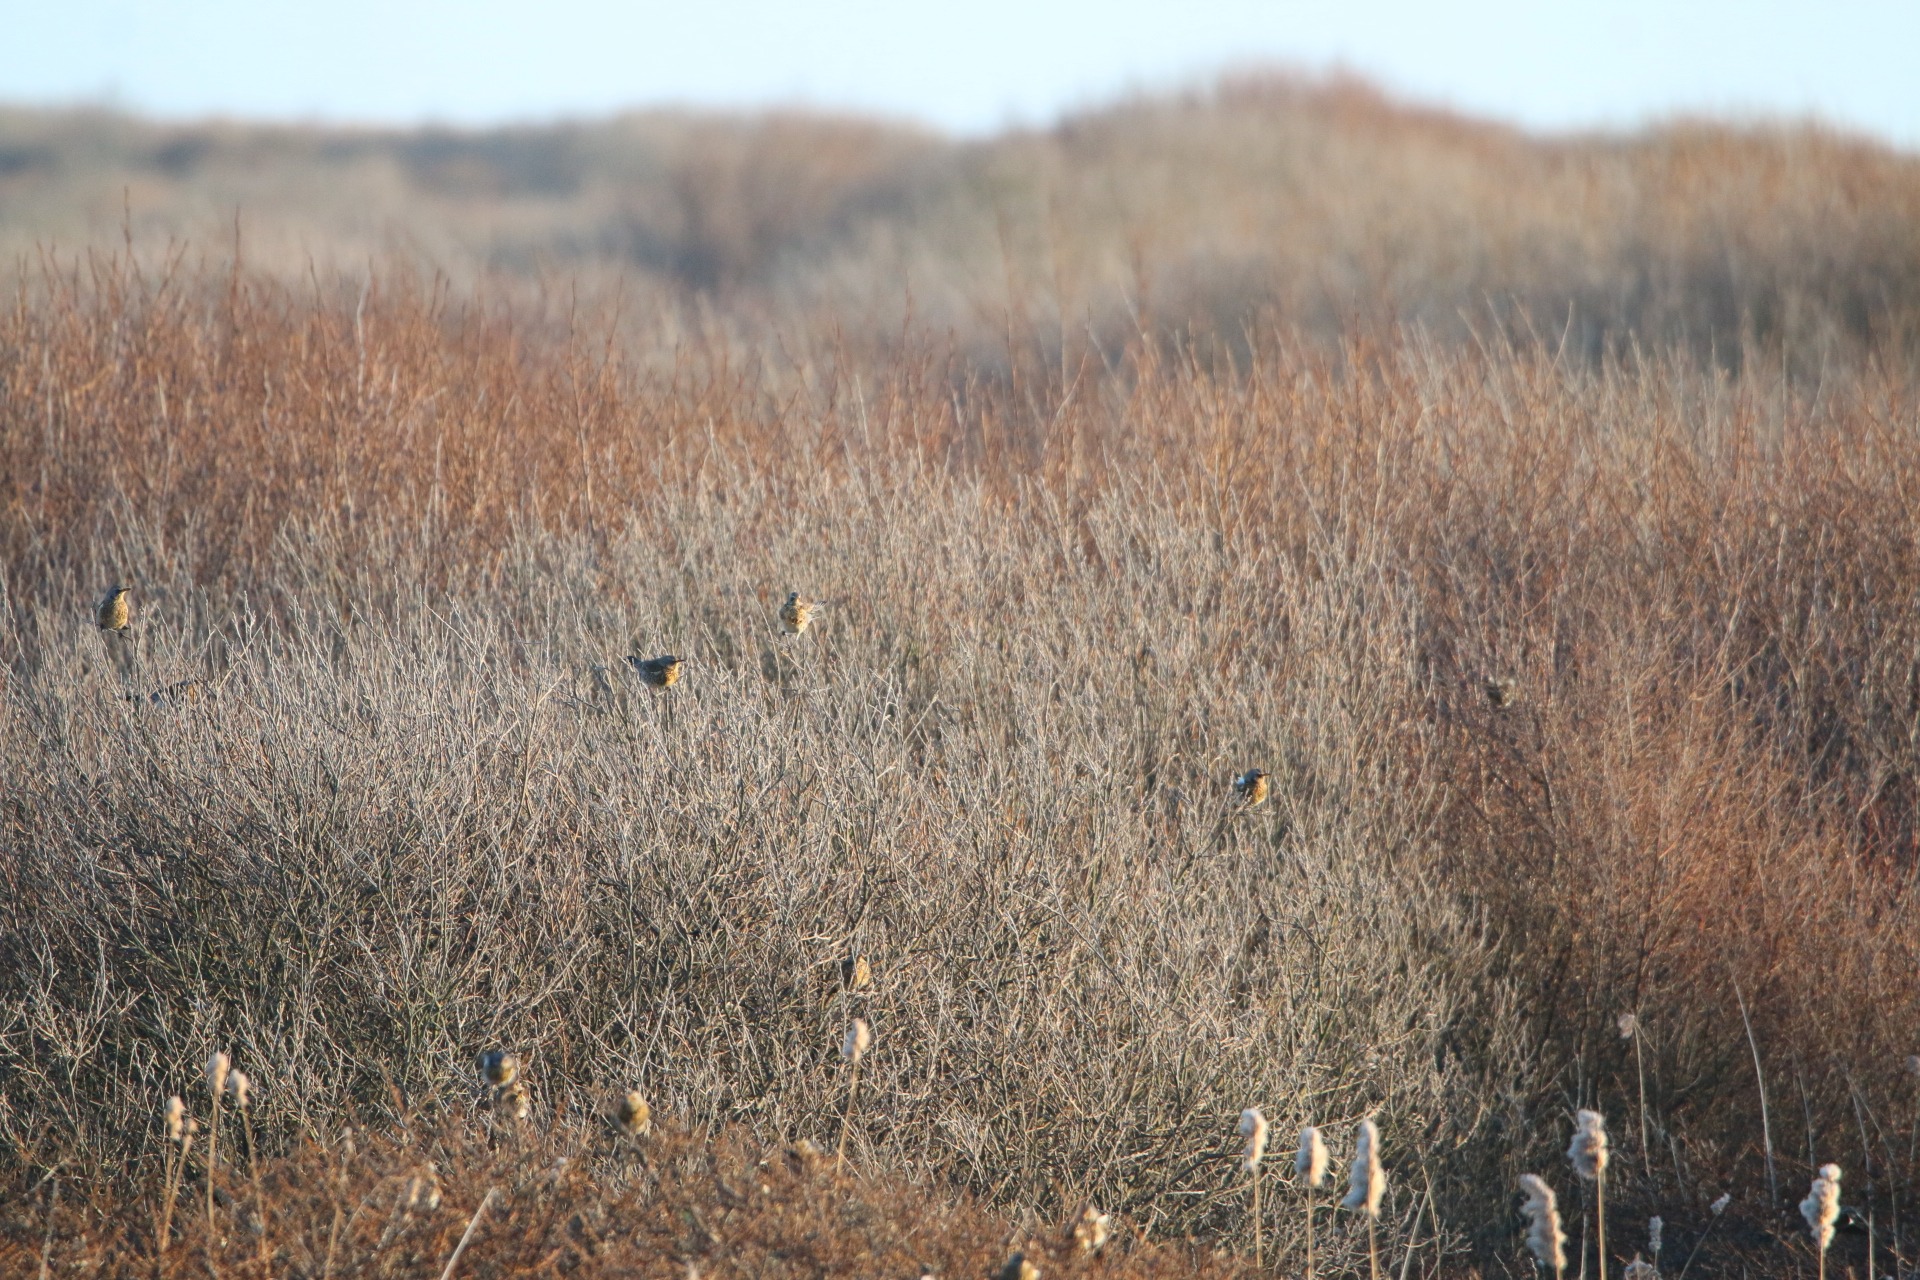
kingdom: Animalia
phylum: Chordata
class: Aves
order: Passeriformes
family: Turdidae
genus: Turdus
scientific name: Turdus pilaris
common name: Sjagger
